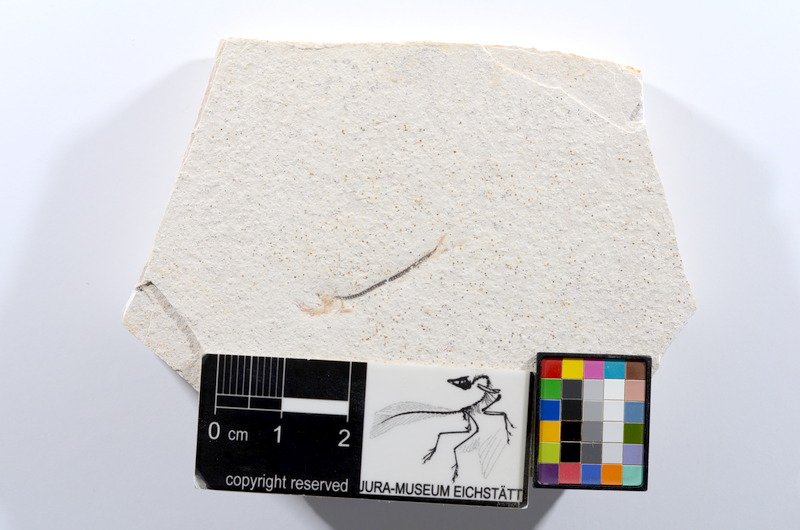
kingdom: Animalia
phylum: Chordata
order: Salmoniformes
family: Orthogonikleithridae
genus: Orthogonikleithrus
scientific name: Orthogonikleithrus hoelli
